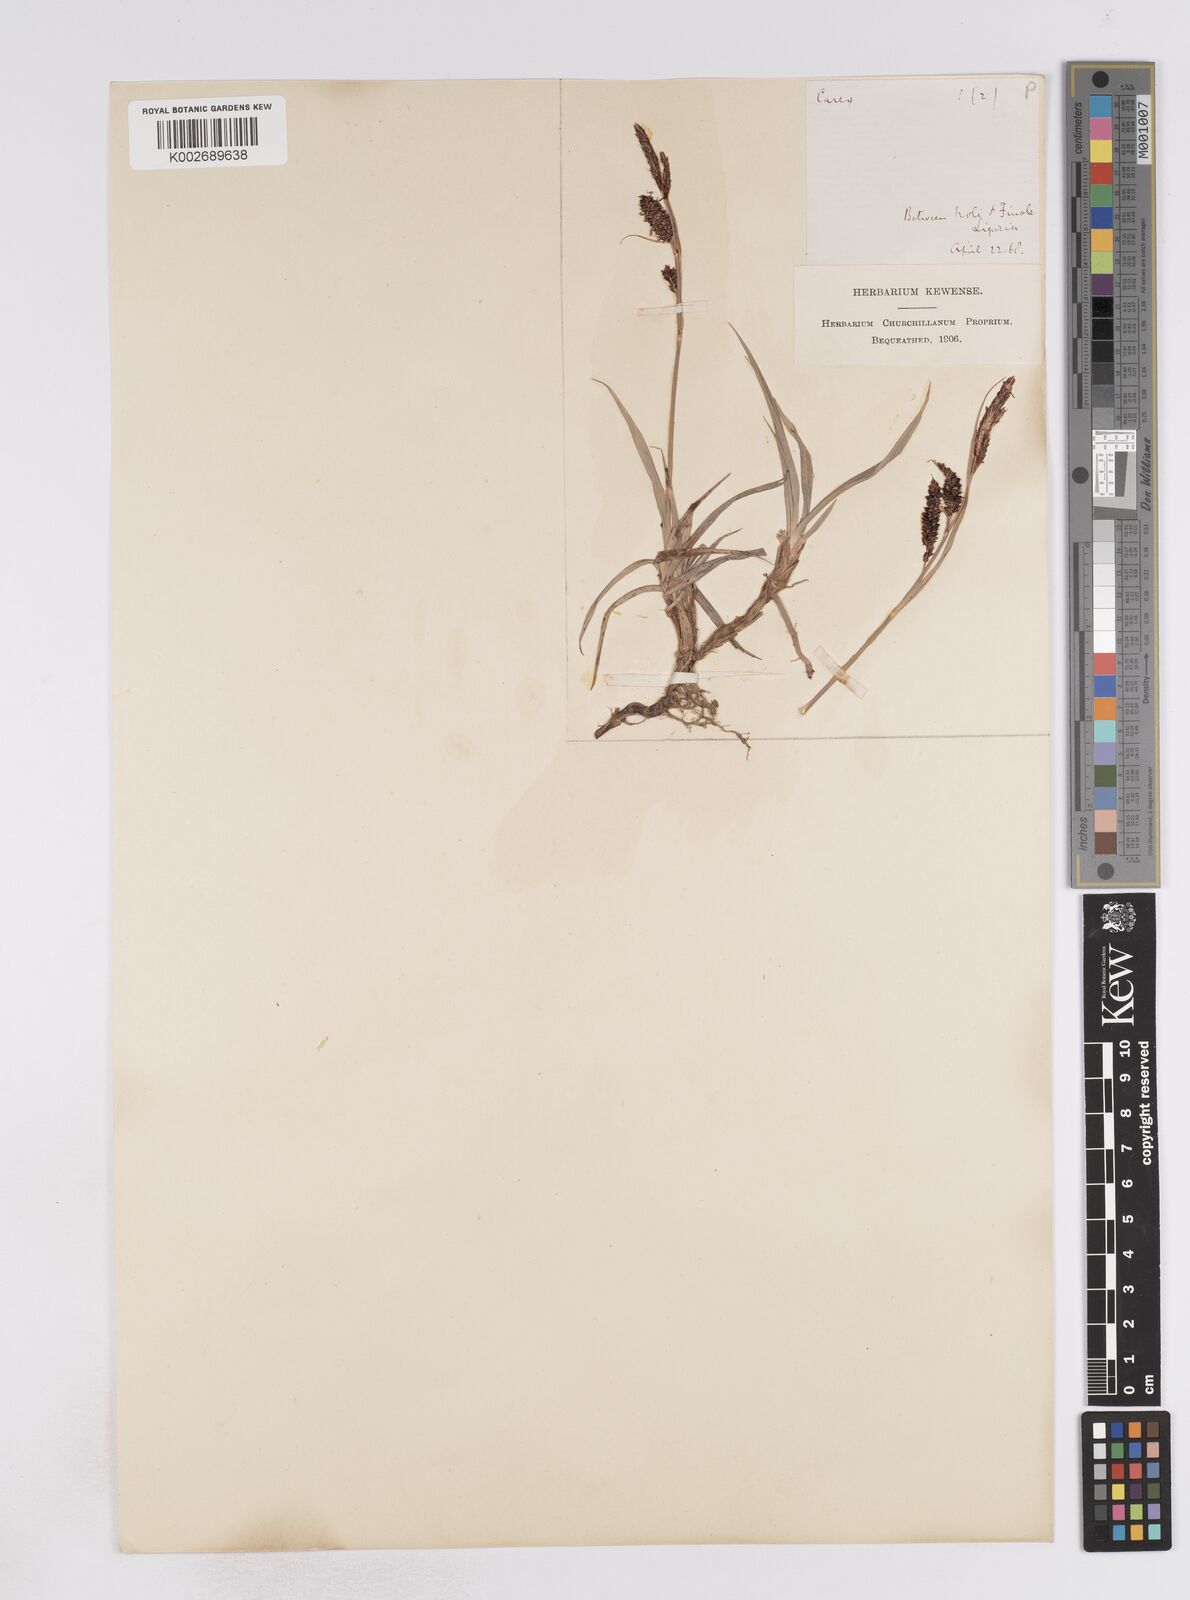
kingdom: Plantae
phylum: Tracheophyta
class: Liliopsida
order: Poales
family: Cyperaceae
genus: Carex
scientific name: Carex flacca
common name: Glaucous sedge
